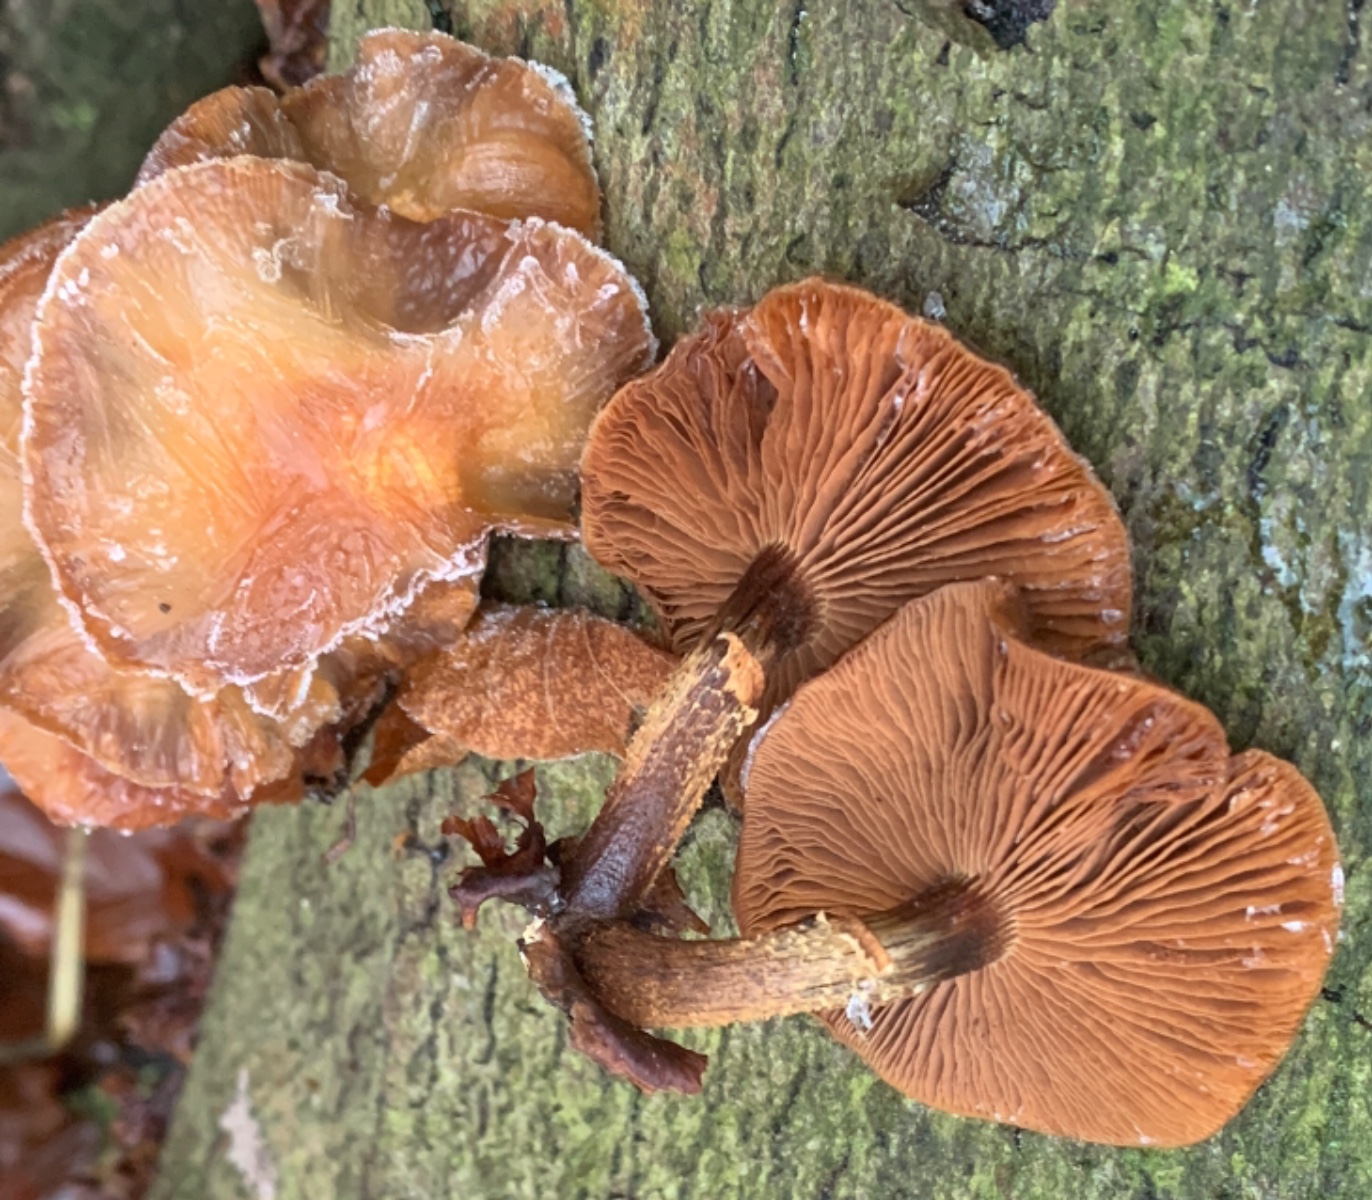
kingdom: Fungi
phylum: Basidiomycota
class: Agaricomycetes
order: Agaricales
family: Strophariaceae
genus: Kuehneromyces
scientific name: Kuehneromyces mutabilis
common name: foranderlig skælhat
